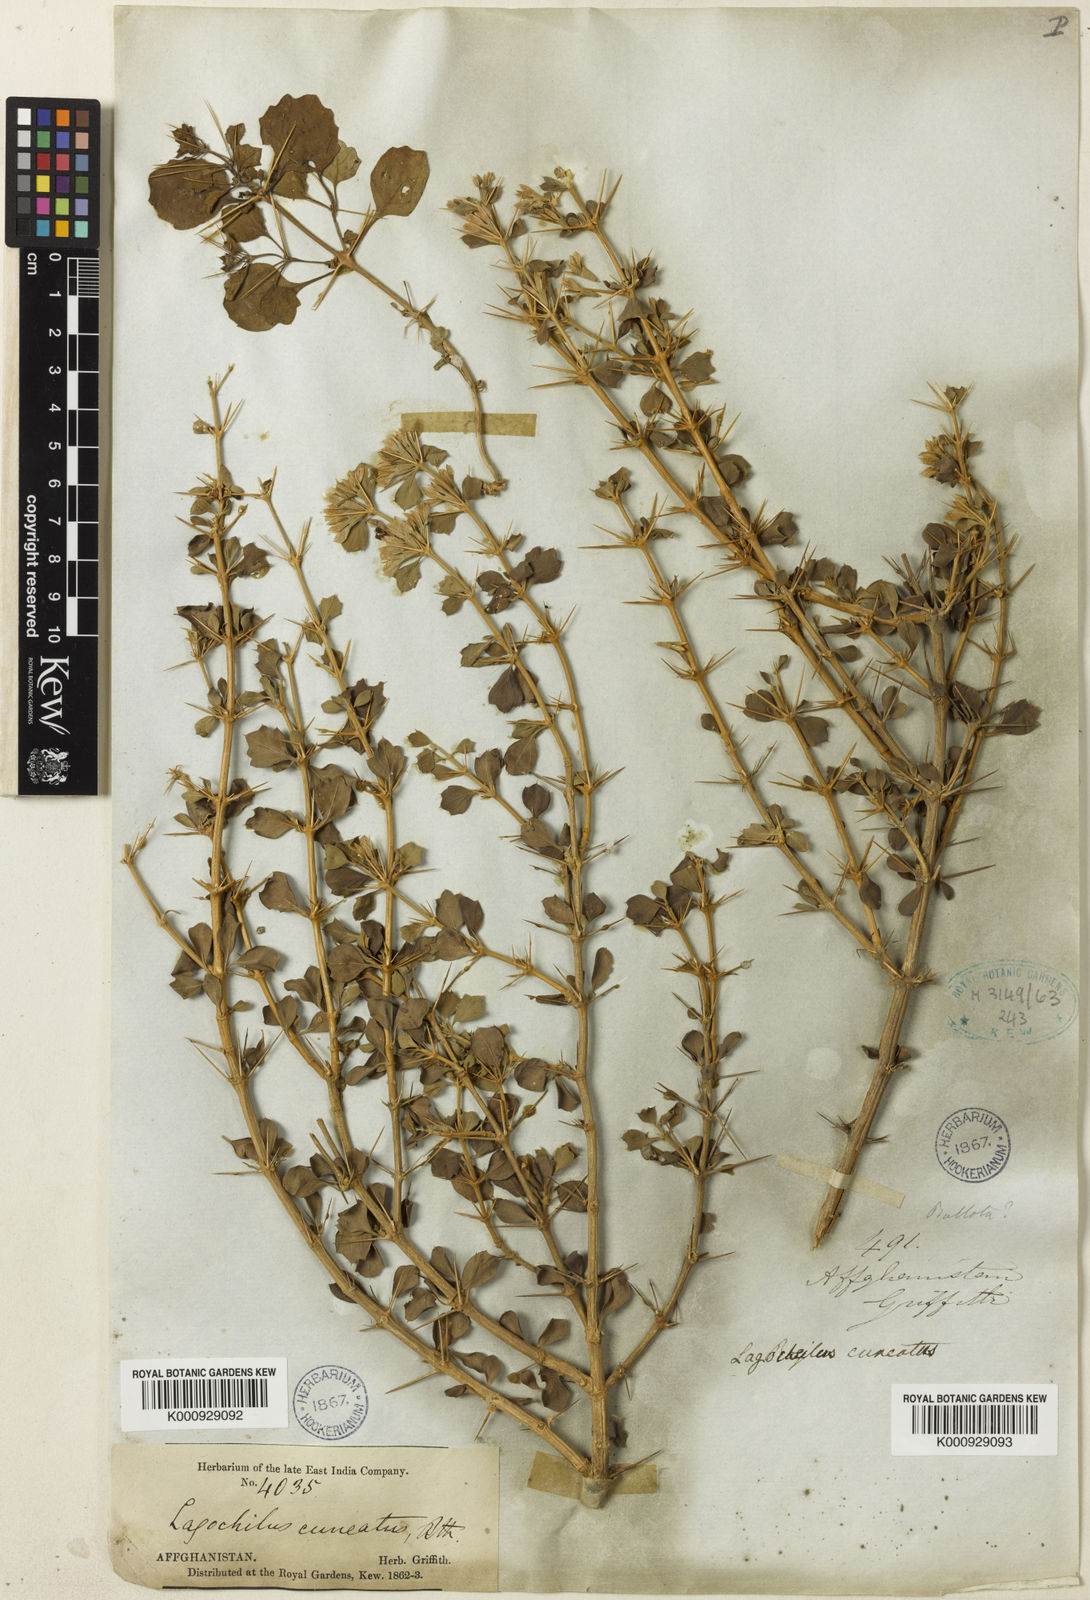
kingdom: Plantae
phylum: Tracheophyta
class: Magnoliopsida
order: Lamiales
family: Lamiaceae
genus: Lagochilus
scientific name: Lagochilus cuneatus
